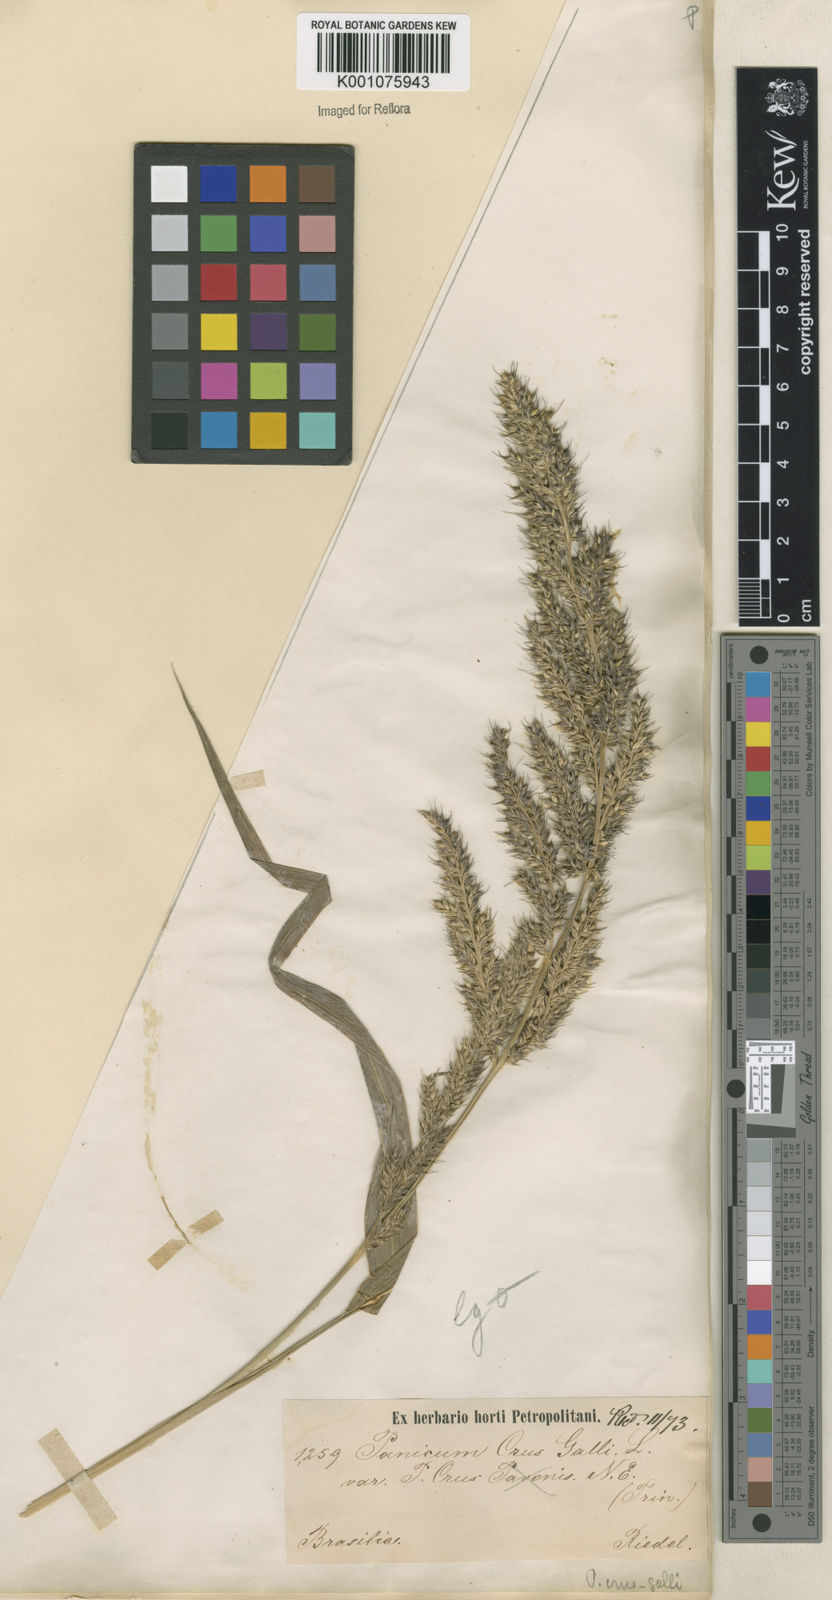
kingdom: Plantae
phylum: Tracheophyta
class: Liliopsida
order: Poales
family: Poaceae
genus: Echinochloa
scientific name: Echinochloa crus-pavonis
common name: Gulf cockspur grass
